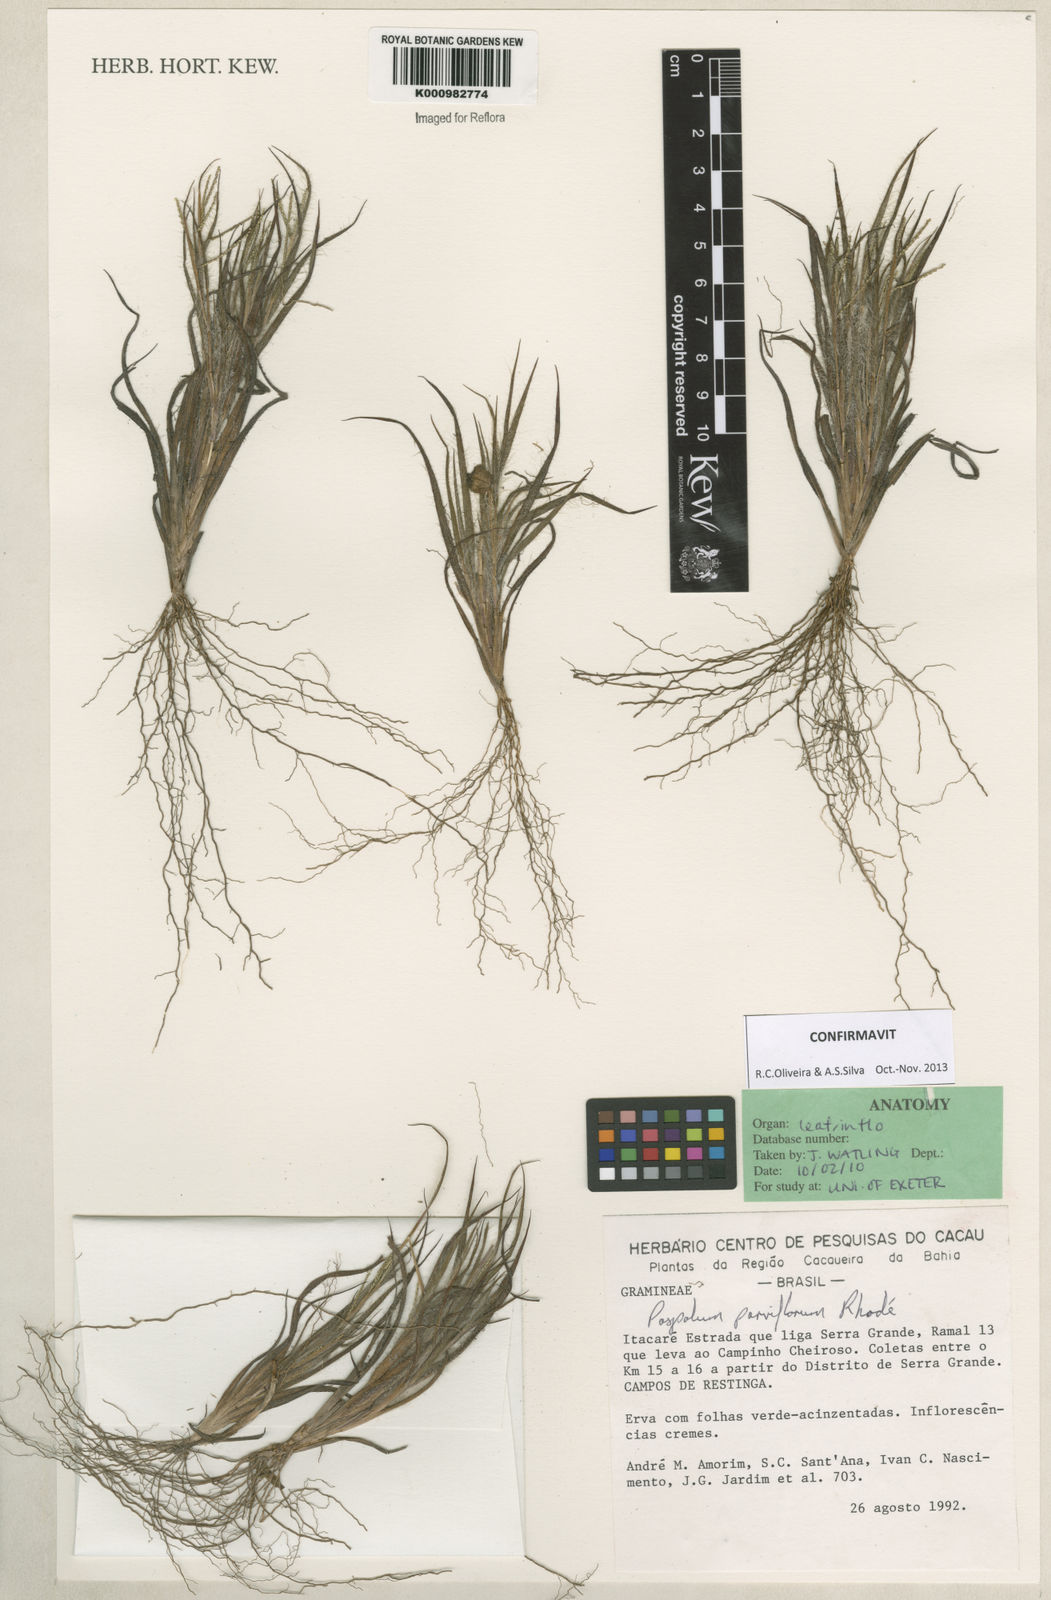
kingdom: Plantae
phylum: Tracheophyta
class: Liliopsida
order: Poales
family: Poaceae
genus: Paspalum
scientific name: Paspalum
